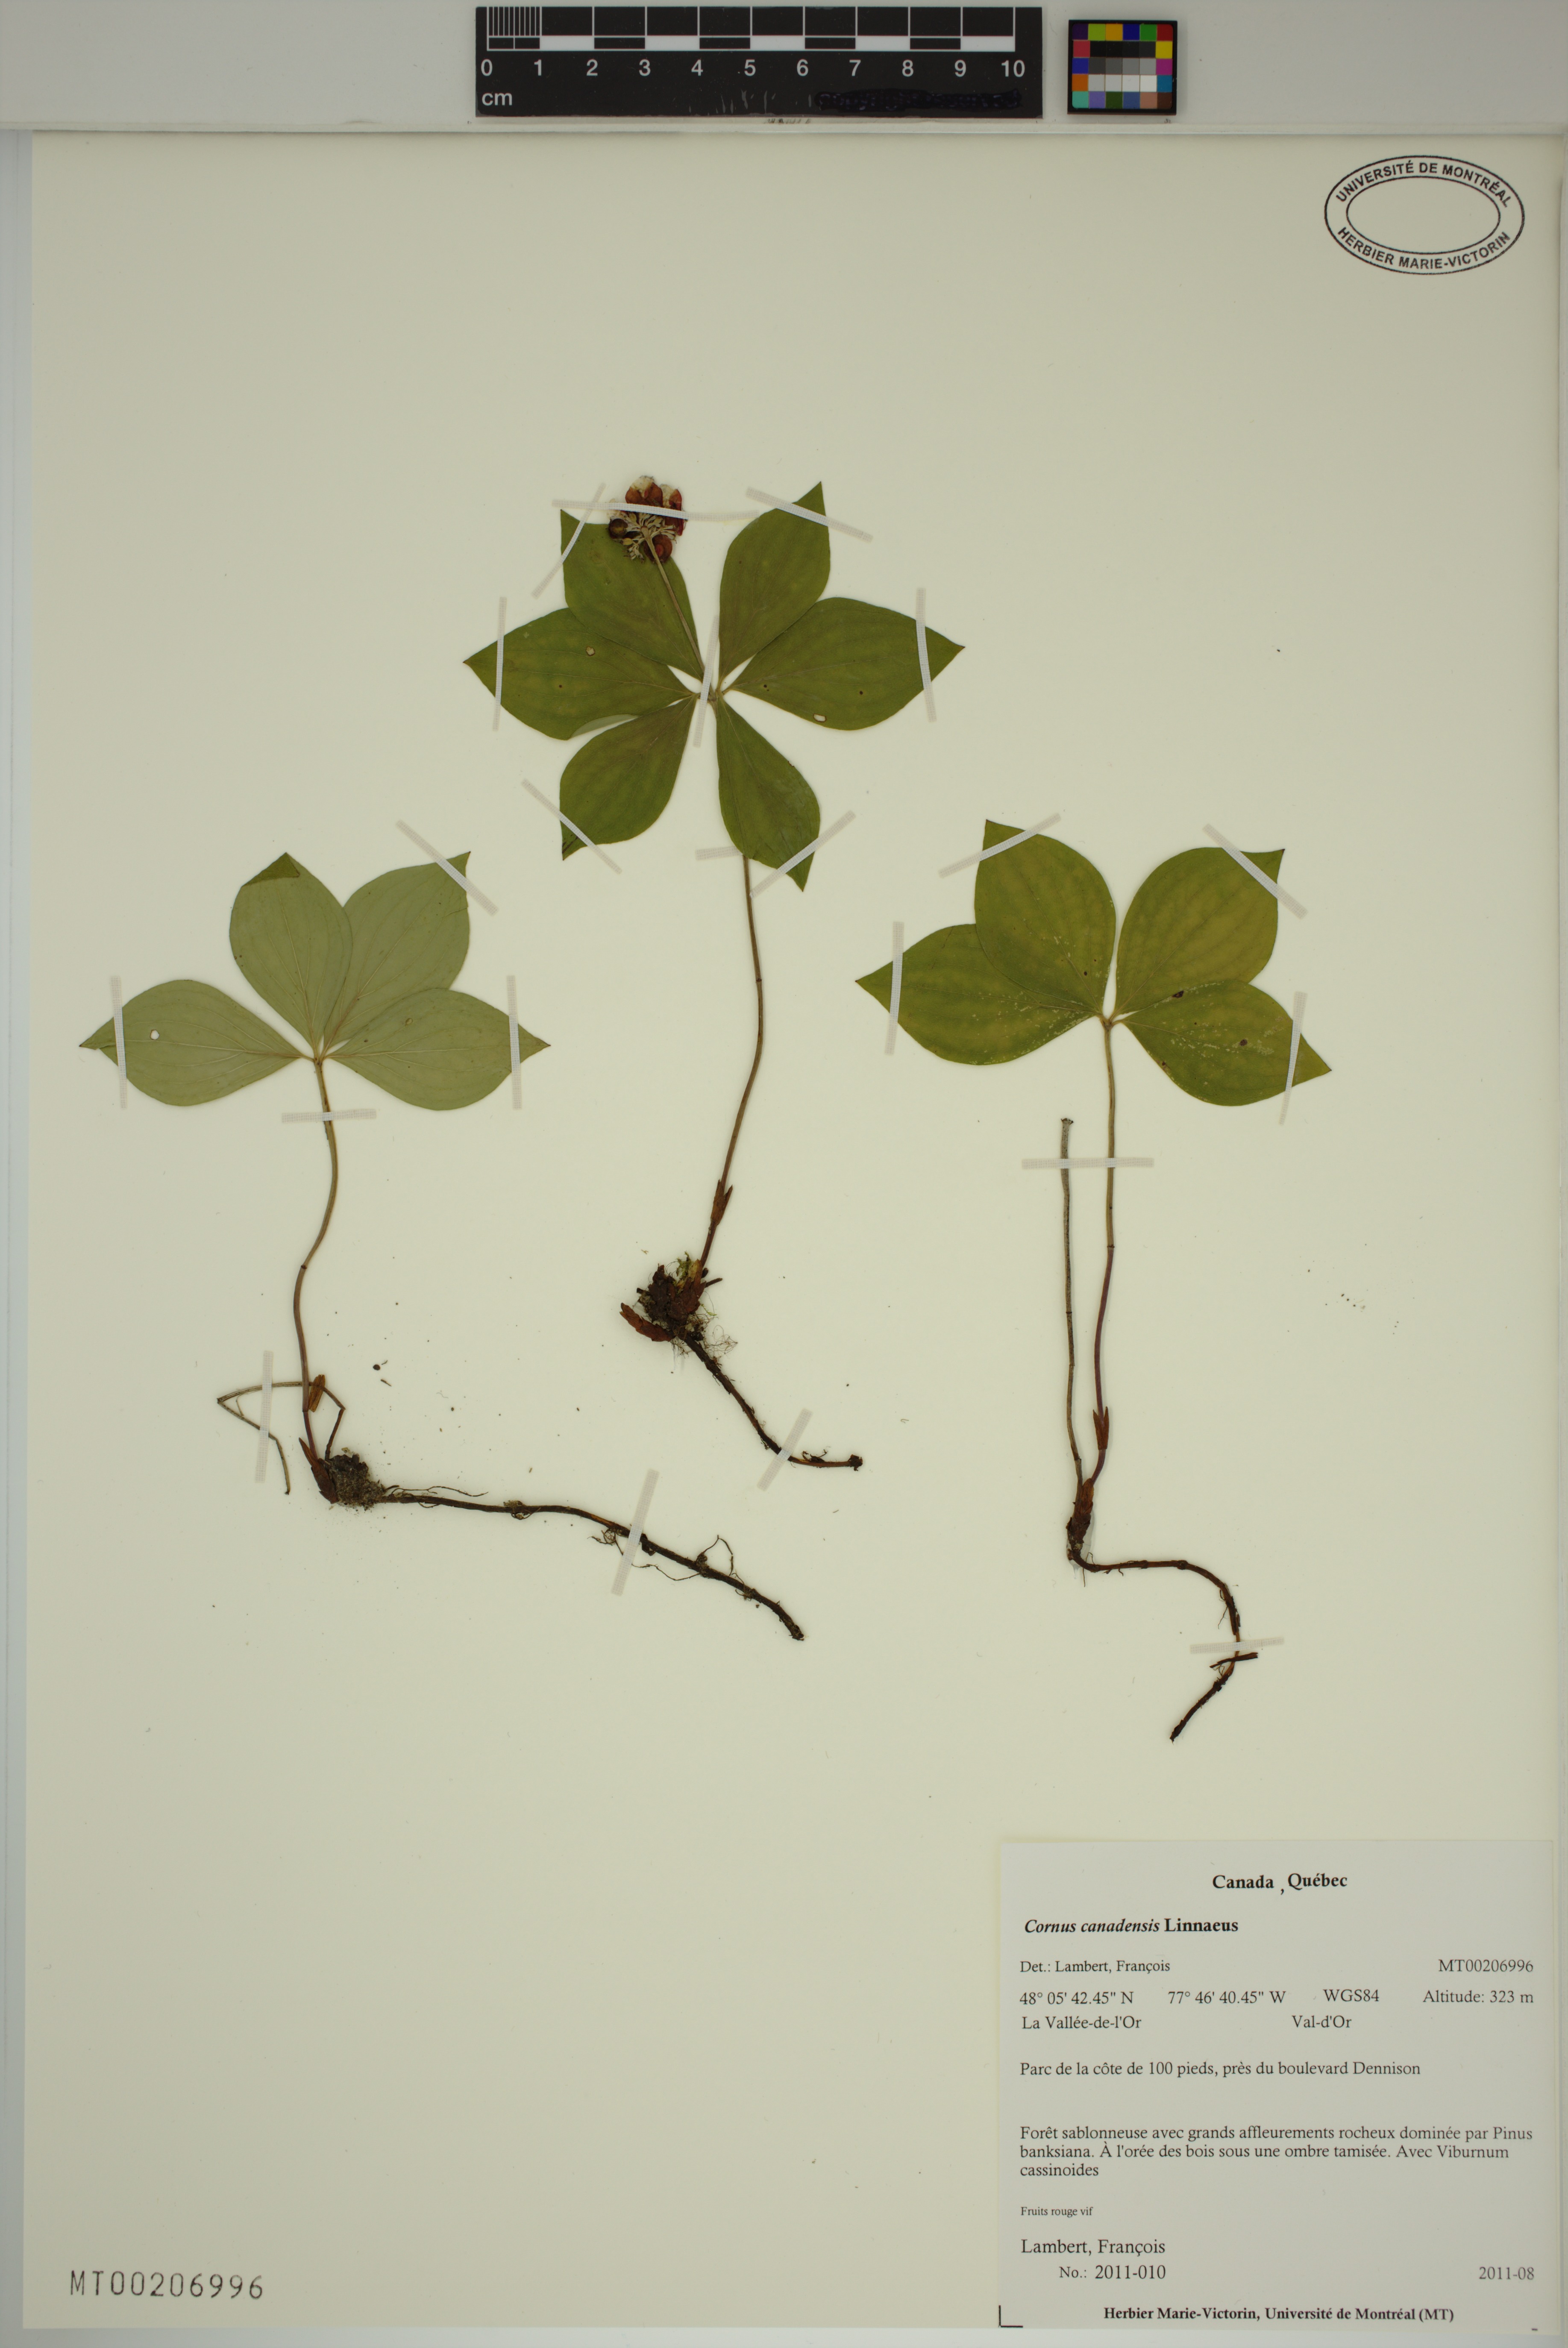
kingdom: Plantae
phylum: Tracheophyta
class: Magnoliopsida
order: Cornales
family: Cornaceae
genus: Cornus
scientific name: Cornus canadensis
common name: Creeping dogwood
